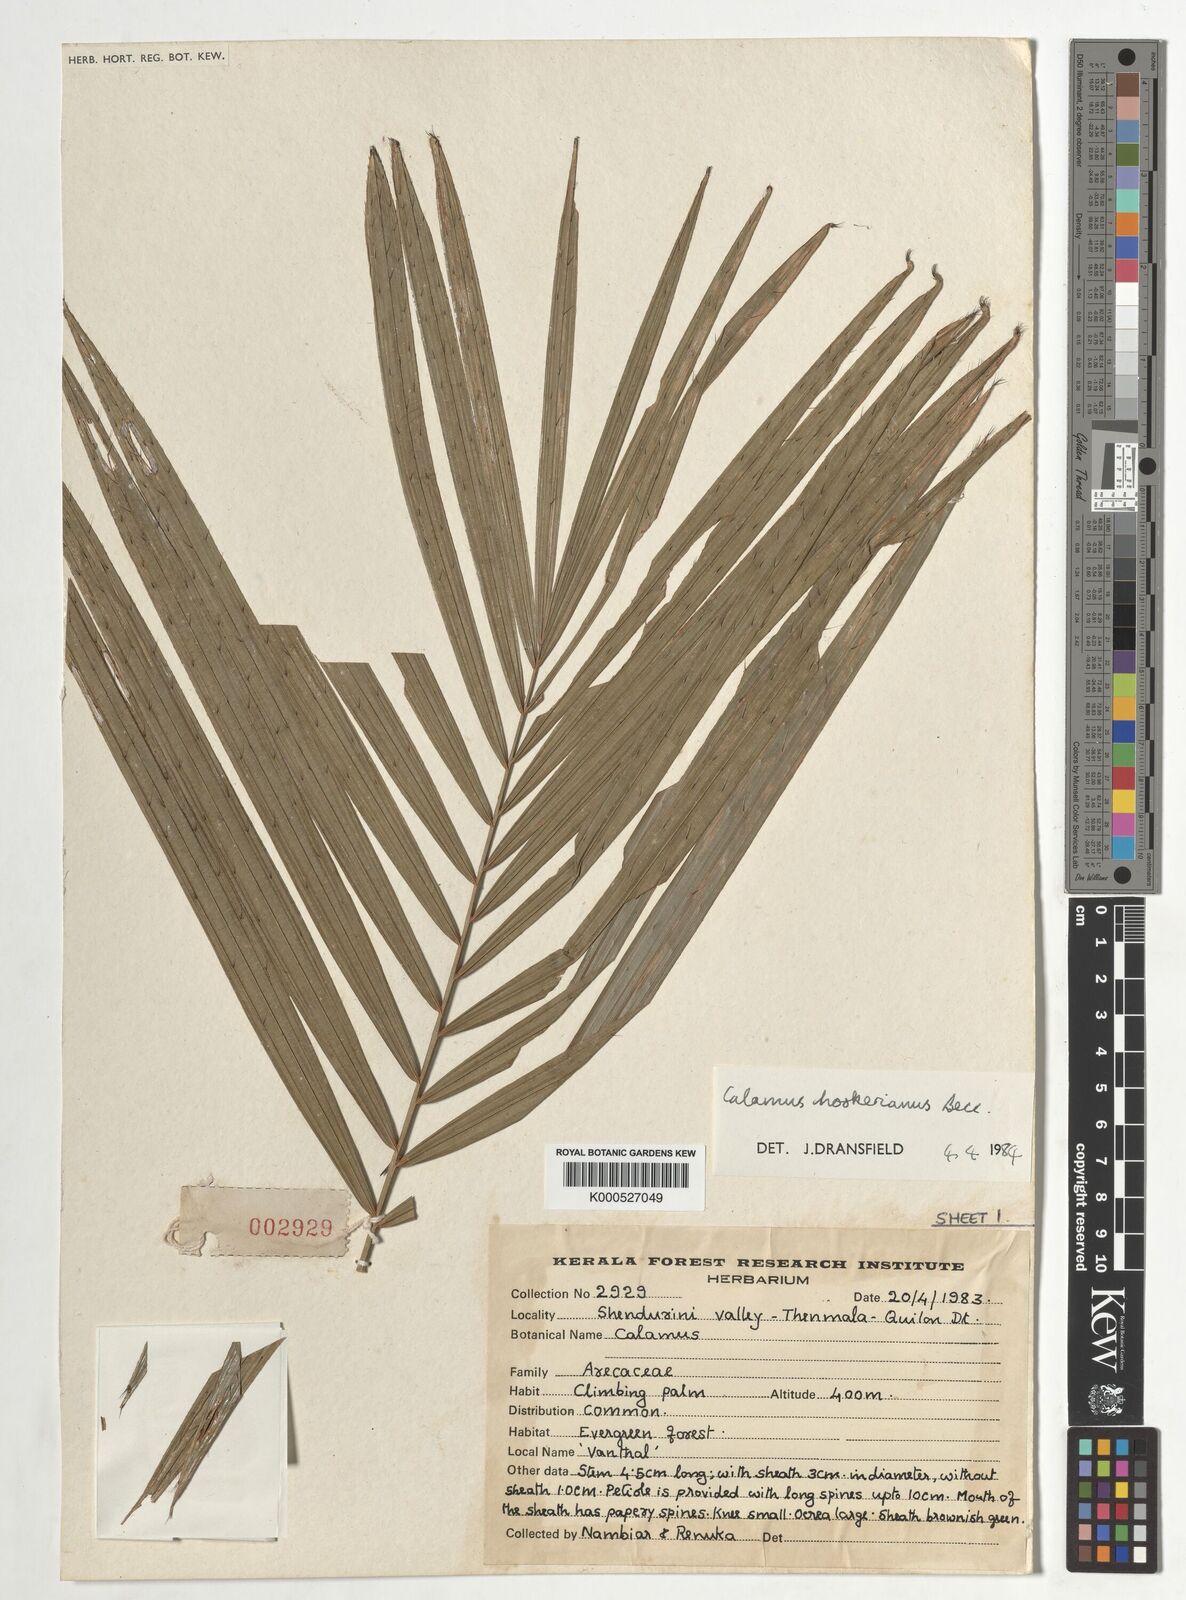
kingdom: Plantae
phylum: Tracheophyta
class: Liliopsida
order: Arecales
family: Arecaceae
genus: Calamus
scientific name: Calamus hookerianus
